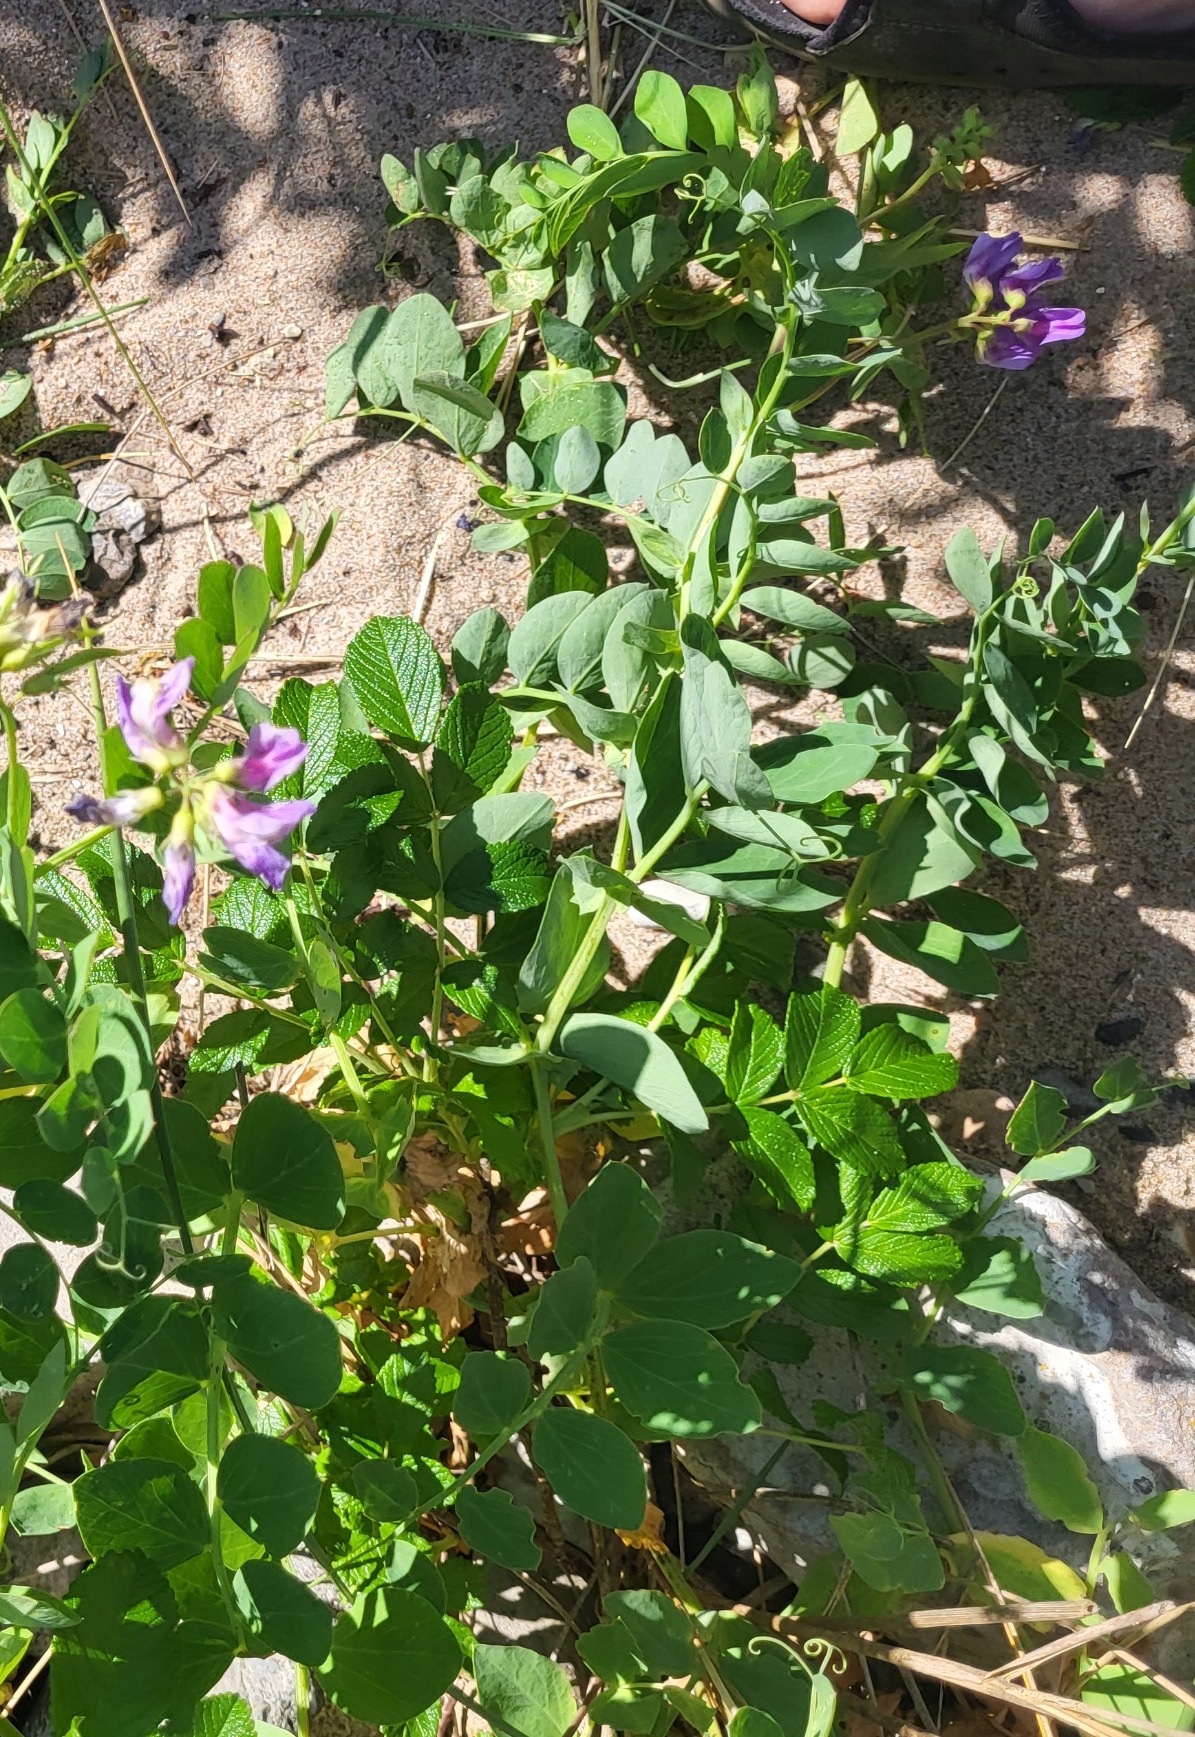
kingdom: Plantae
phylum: Tracheophyta
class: Magnoliopsida
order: Fabales
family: Fabaceae
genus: Lathyrus
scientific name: Lathyrus japonicus
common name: Strand-fladbælg
